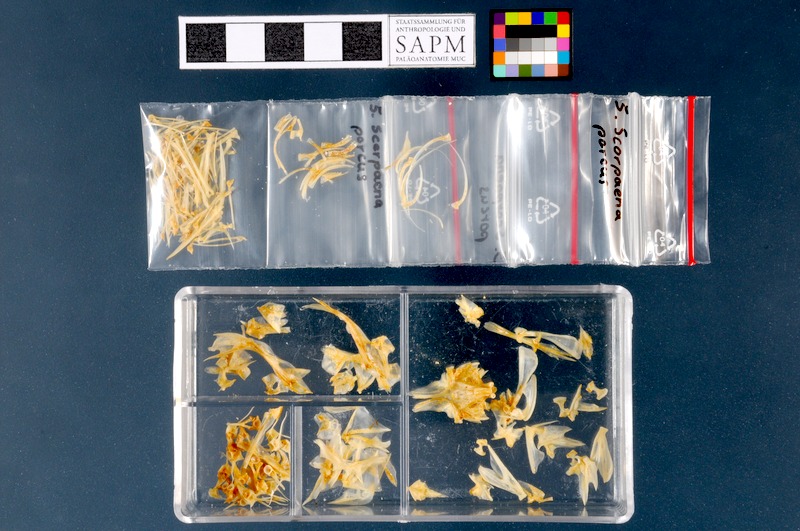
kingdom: Animalia
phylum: Chordata
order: Scorpaeniformes
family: Scorpaenidae
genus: Scorpaena
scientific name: Scorpaena porcus
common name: Black scorpionfish
